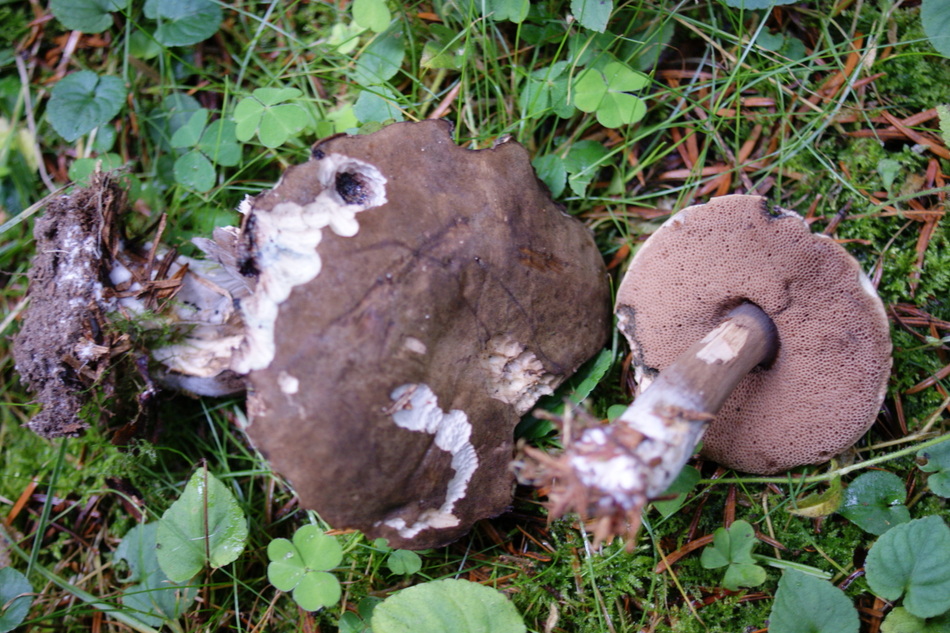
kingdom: Fungi
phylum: Basidiomycota
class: Agaricomycetes
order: Boletales
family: Boletaceae
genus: Porphyrellus
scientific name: Porphyrellus porphyrosporus
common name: sodrørhat
